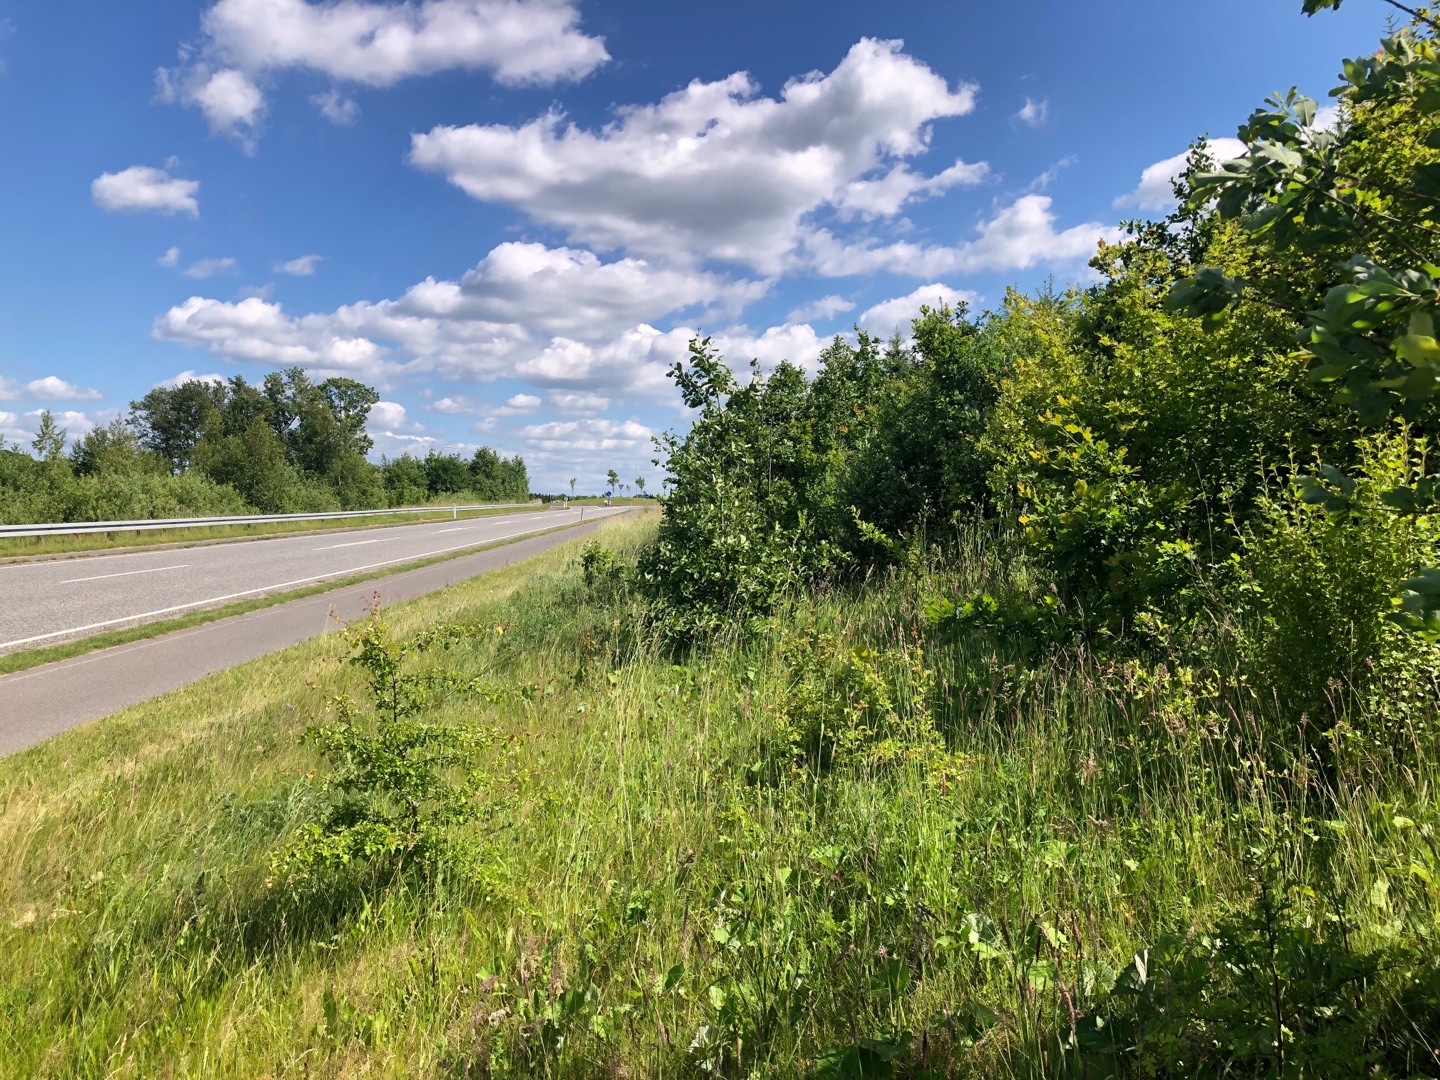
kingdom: Plantae
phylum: Tracheophyta
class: Liliopsida
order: Asparagales
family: Orchidaceae
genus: Dactylorhiza
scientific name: Dactylorhiza majalis
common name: Maj-gøgeurt
